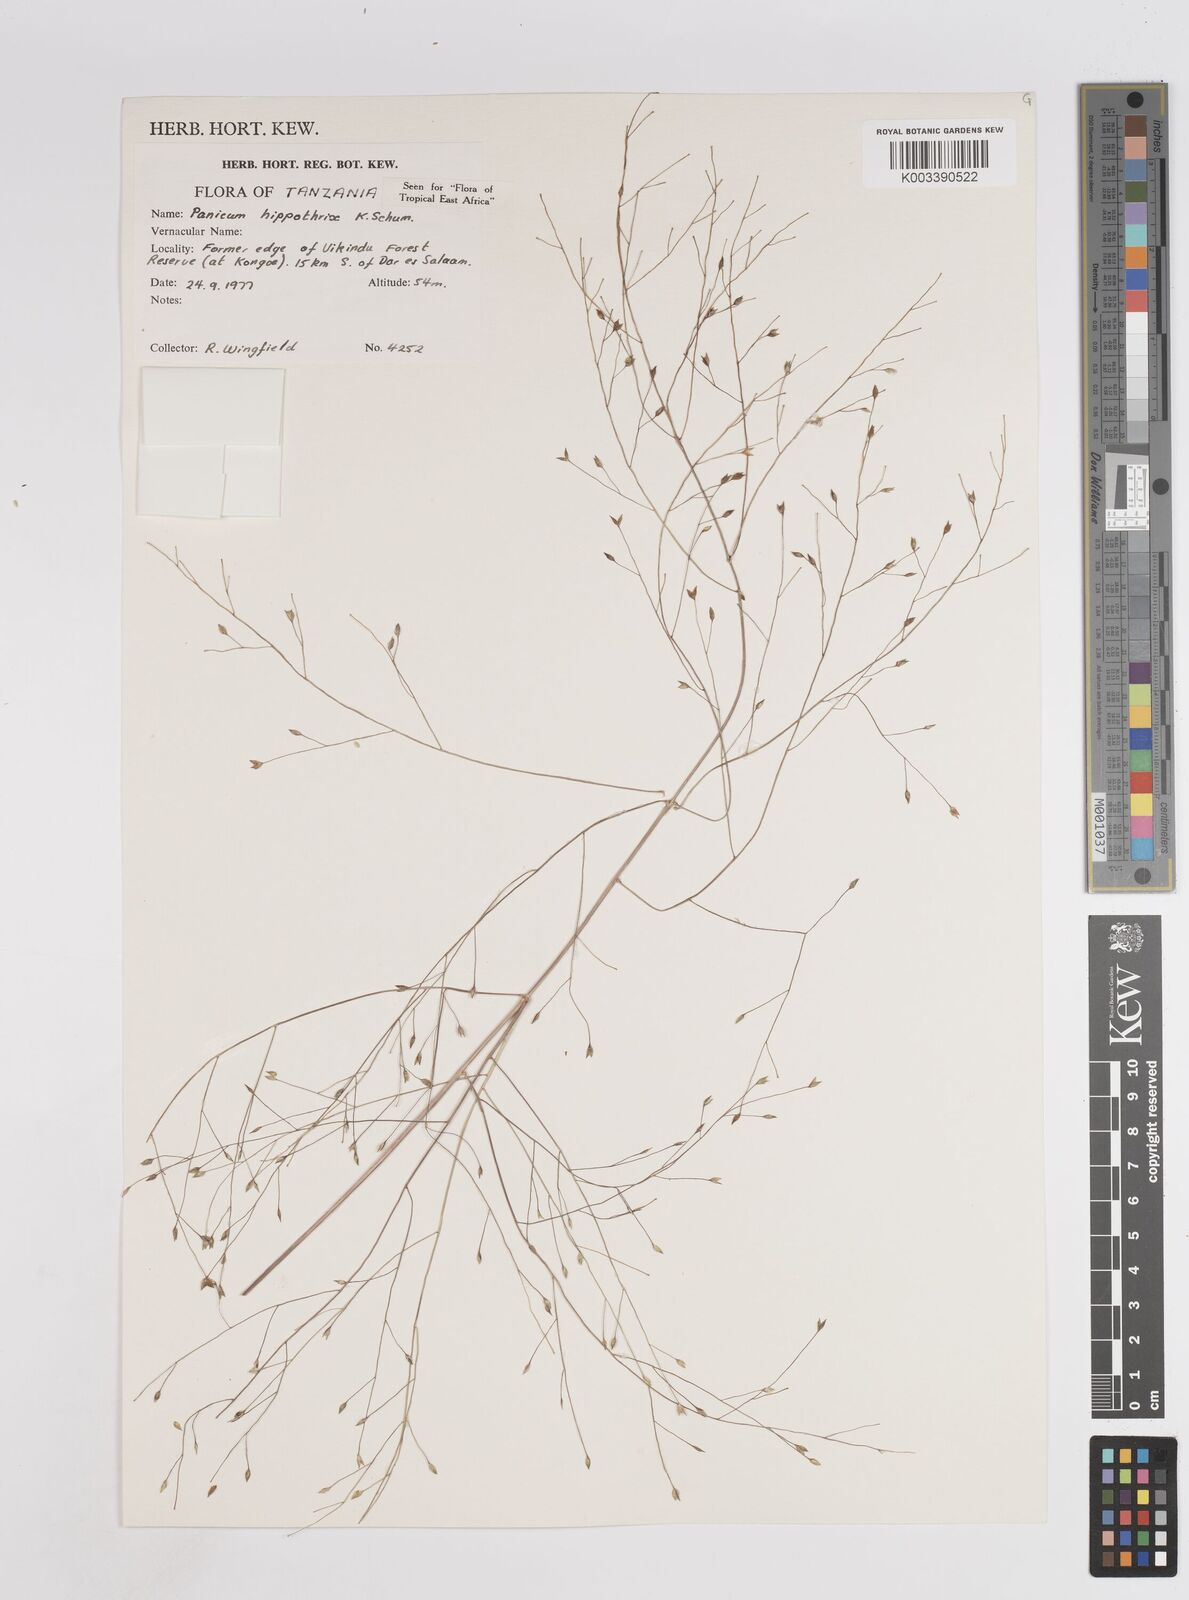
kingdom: Plantae
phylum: Tracheophyta
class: Liliopsida
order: Poales
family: Poaceae
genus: Panicum
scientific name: Panicum hippothrix
